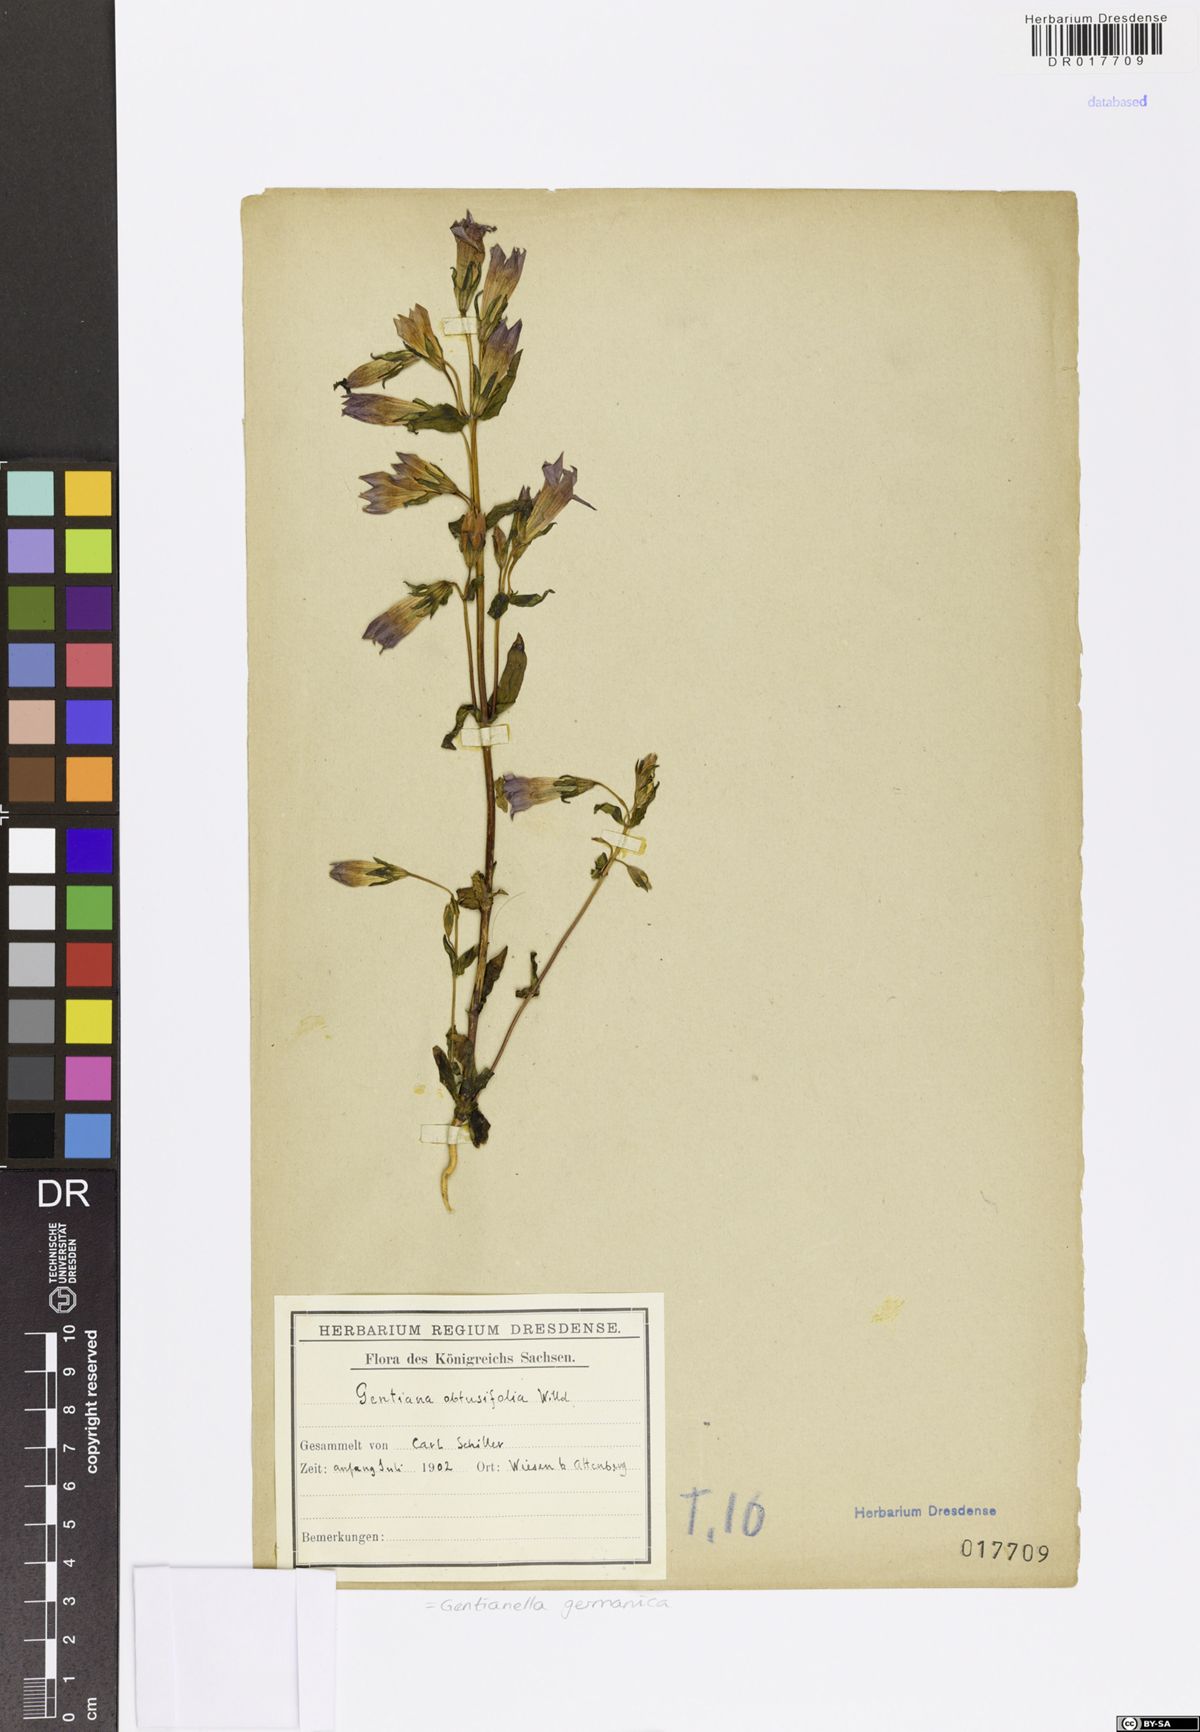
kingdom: Plantae
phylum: Tracheophyta
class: Magnoliopsida
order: Gentianales
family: Gentianaceae
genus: Gentianella
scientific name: Gentianella praecox
